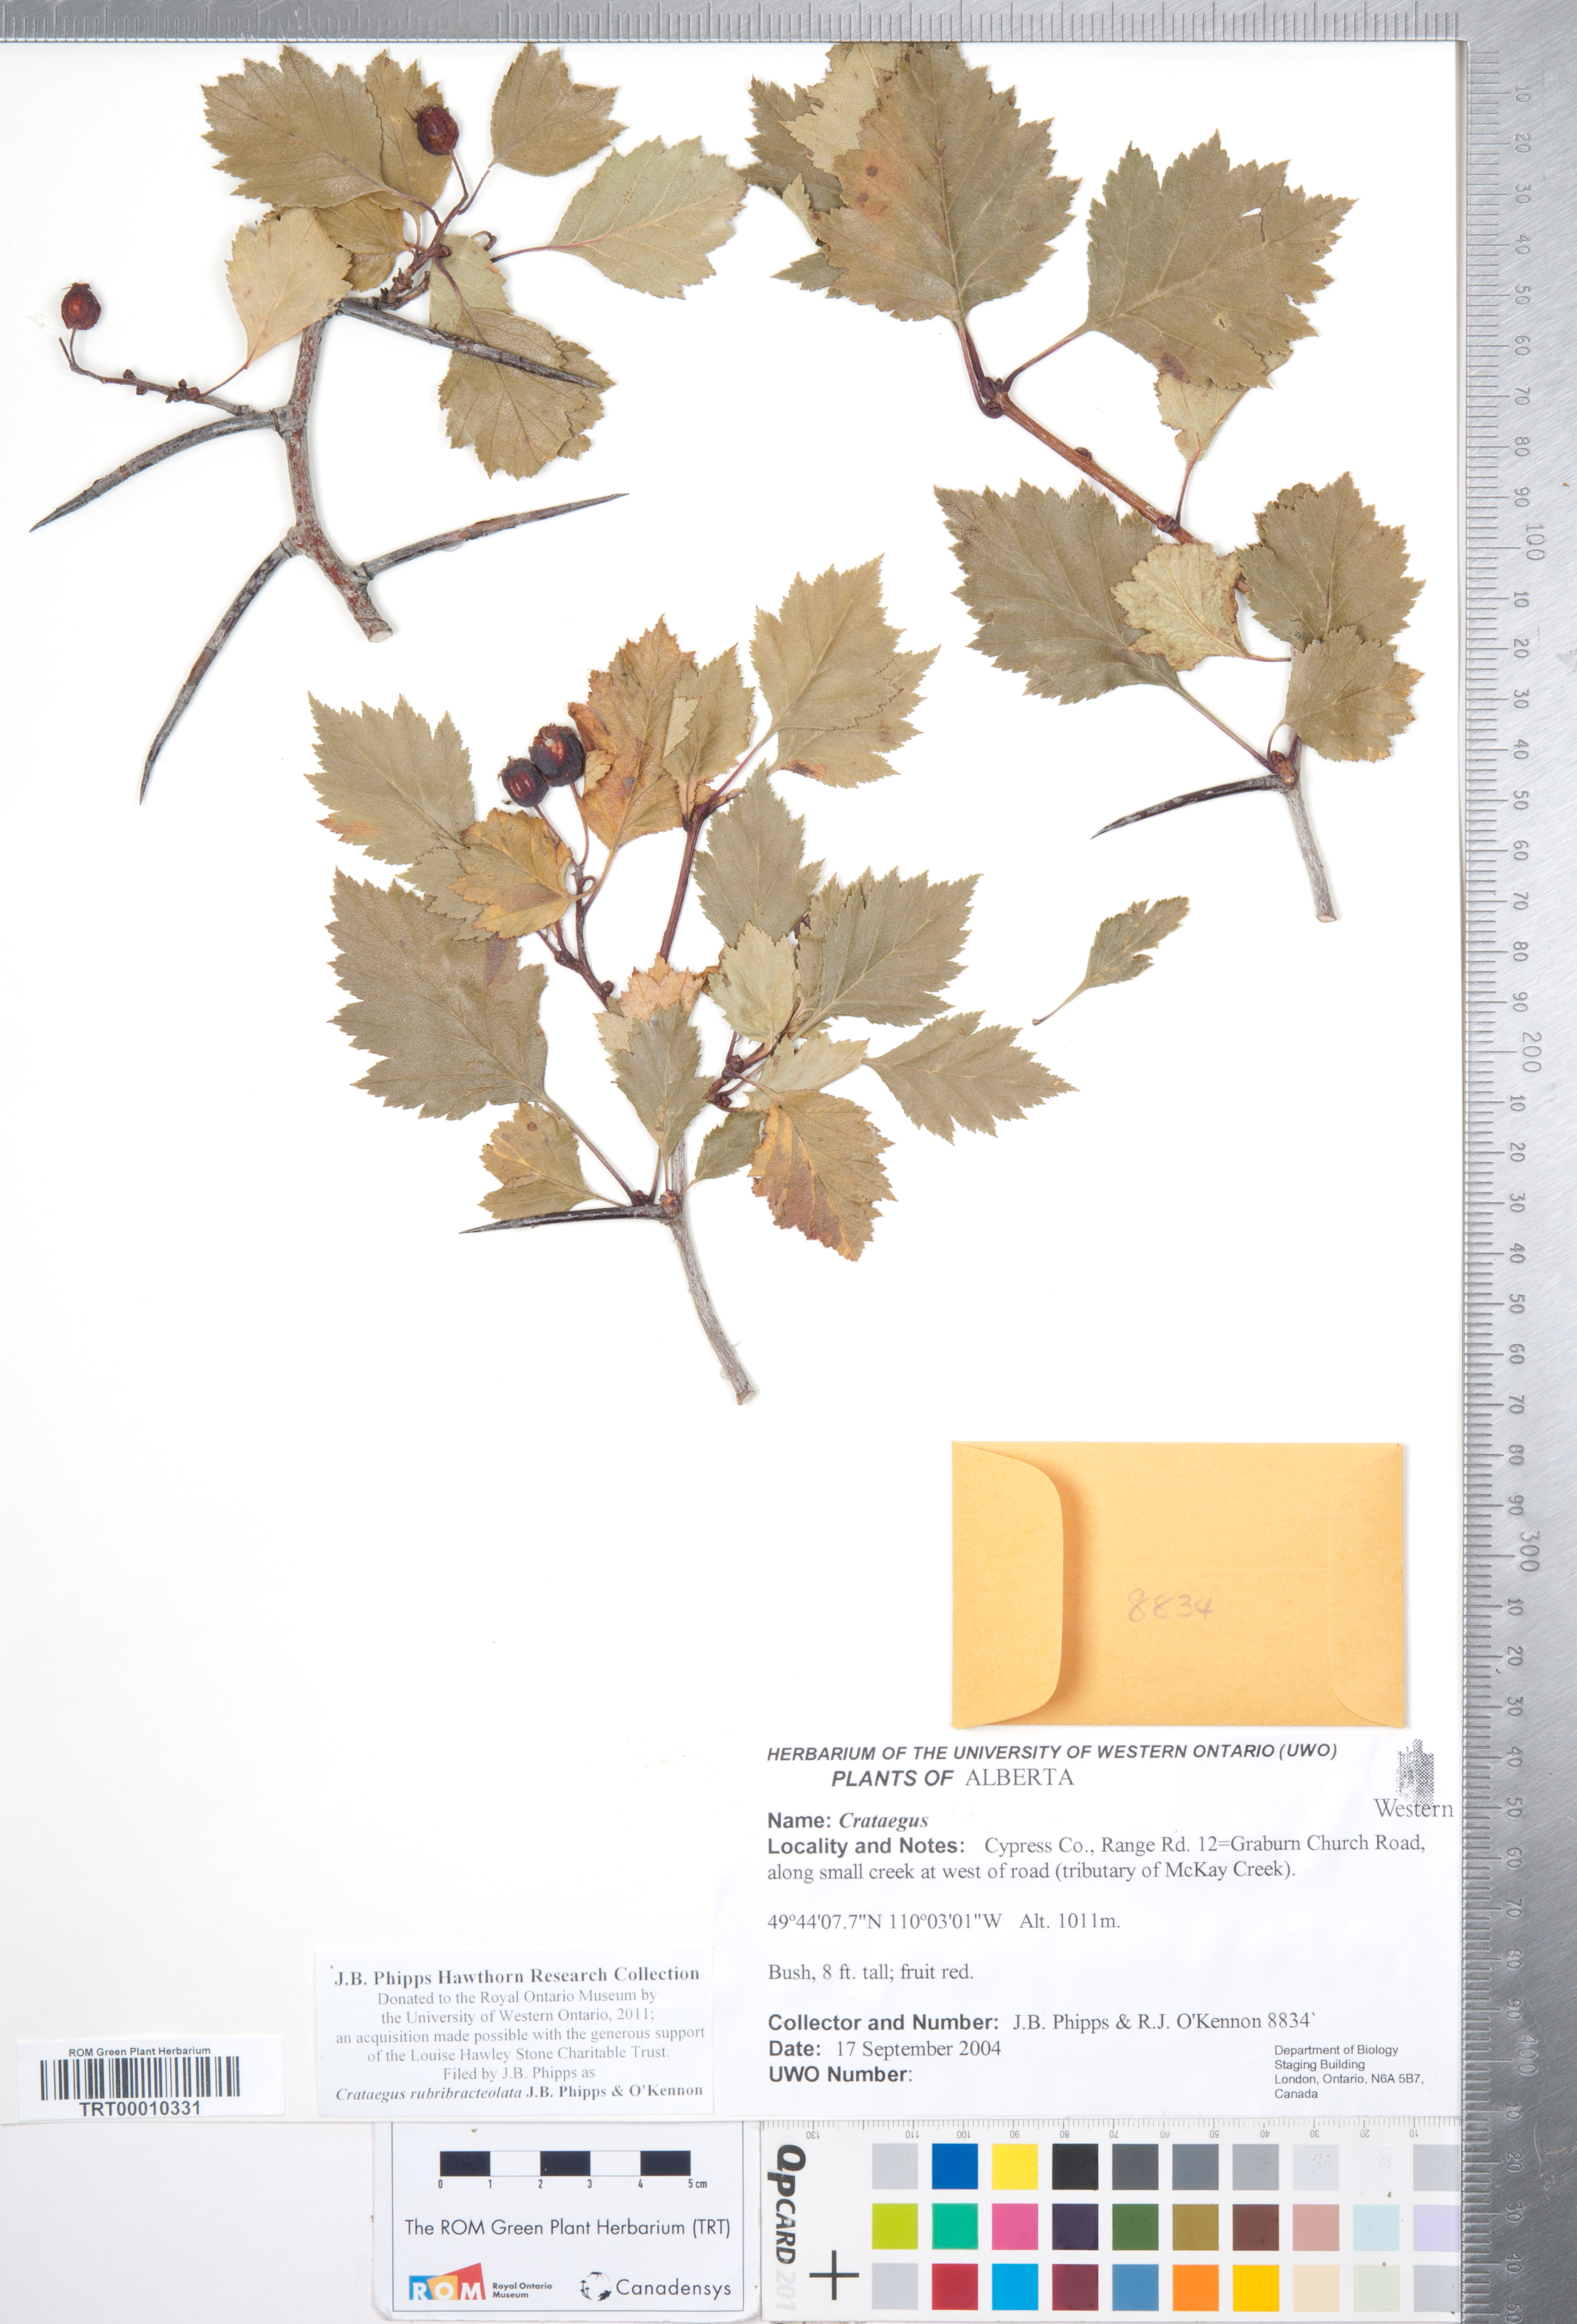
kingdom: Plantae
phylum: Tracheophyta
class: Magnoliopsida
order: Rosales
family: Rosaceae
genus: Crataegus
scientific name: Crataegus rubribracteolata
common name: Red bracteole hawthorn
